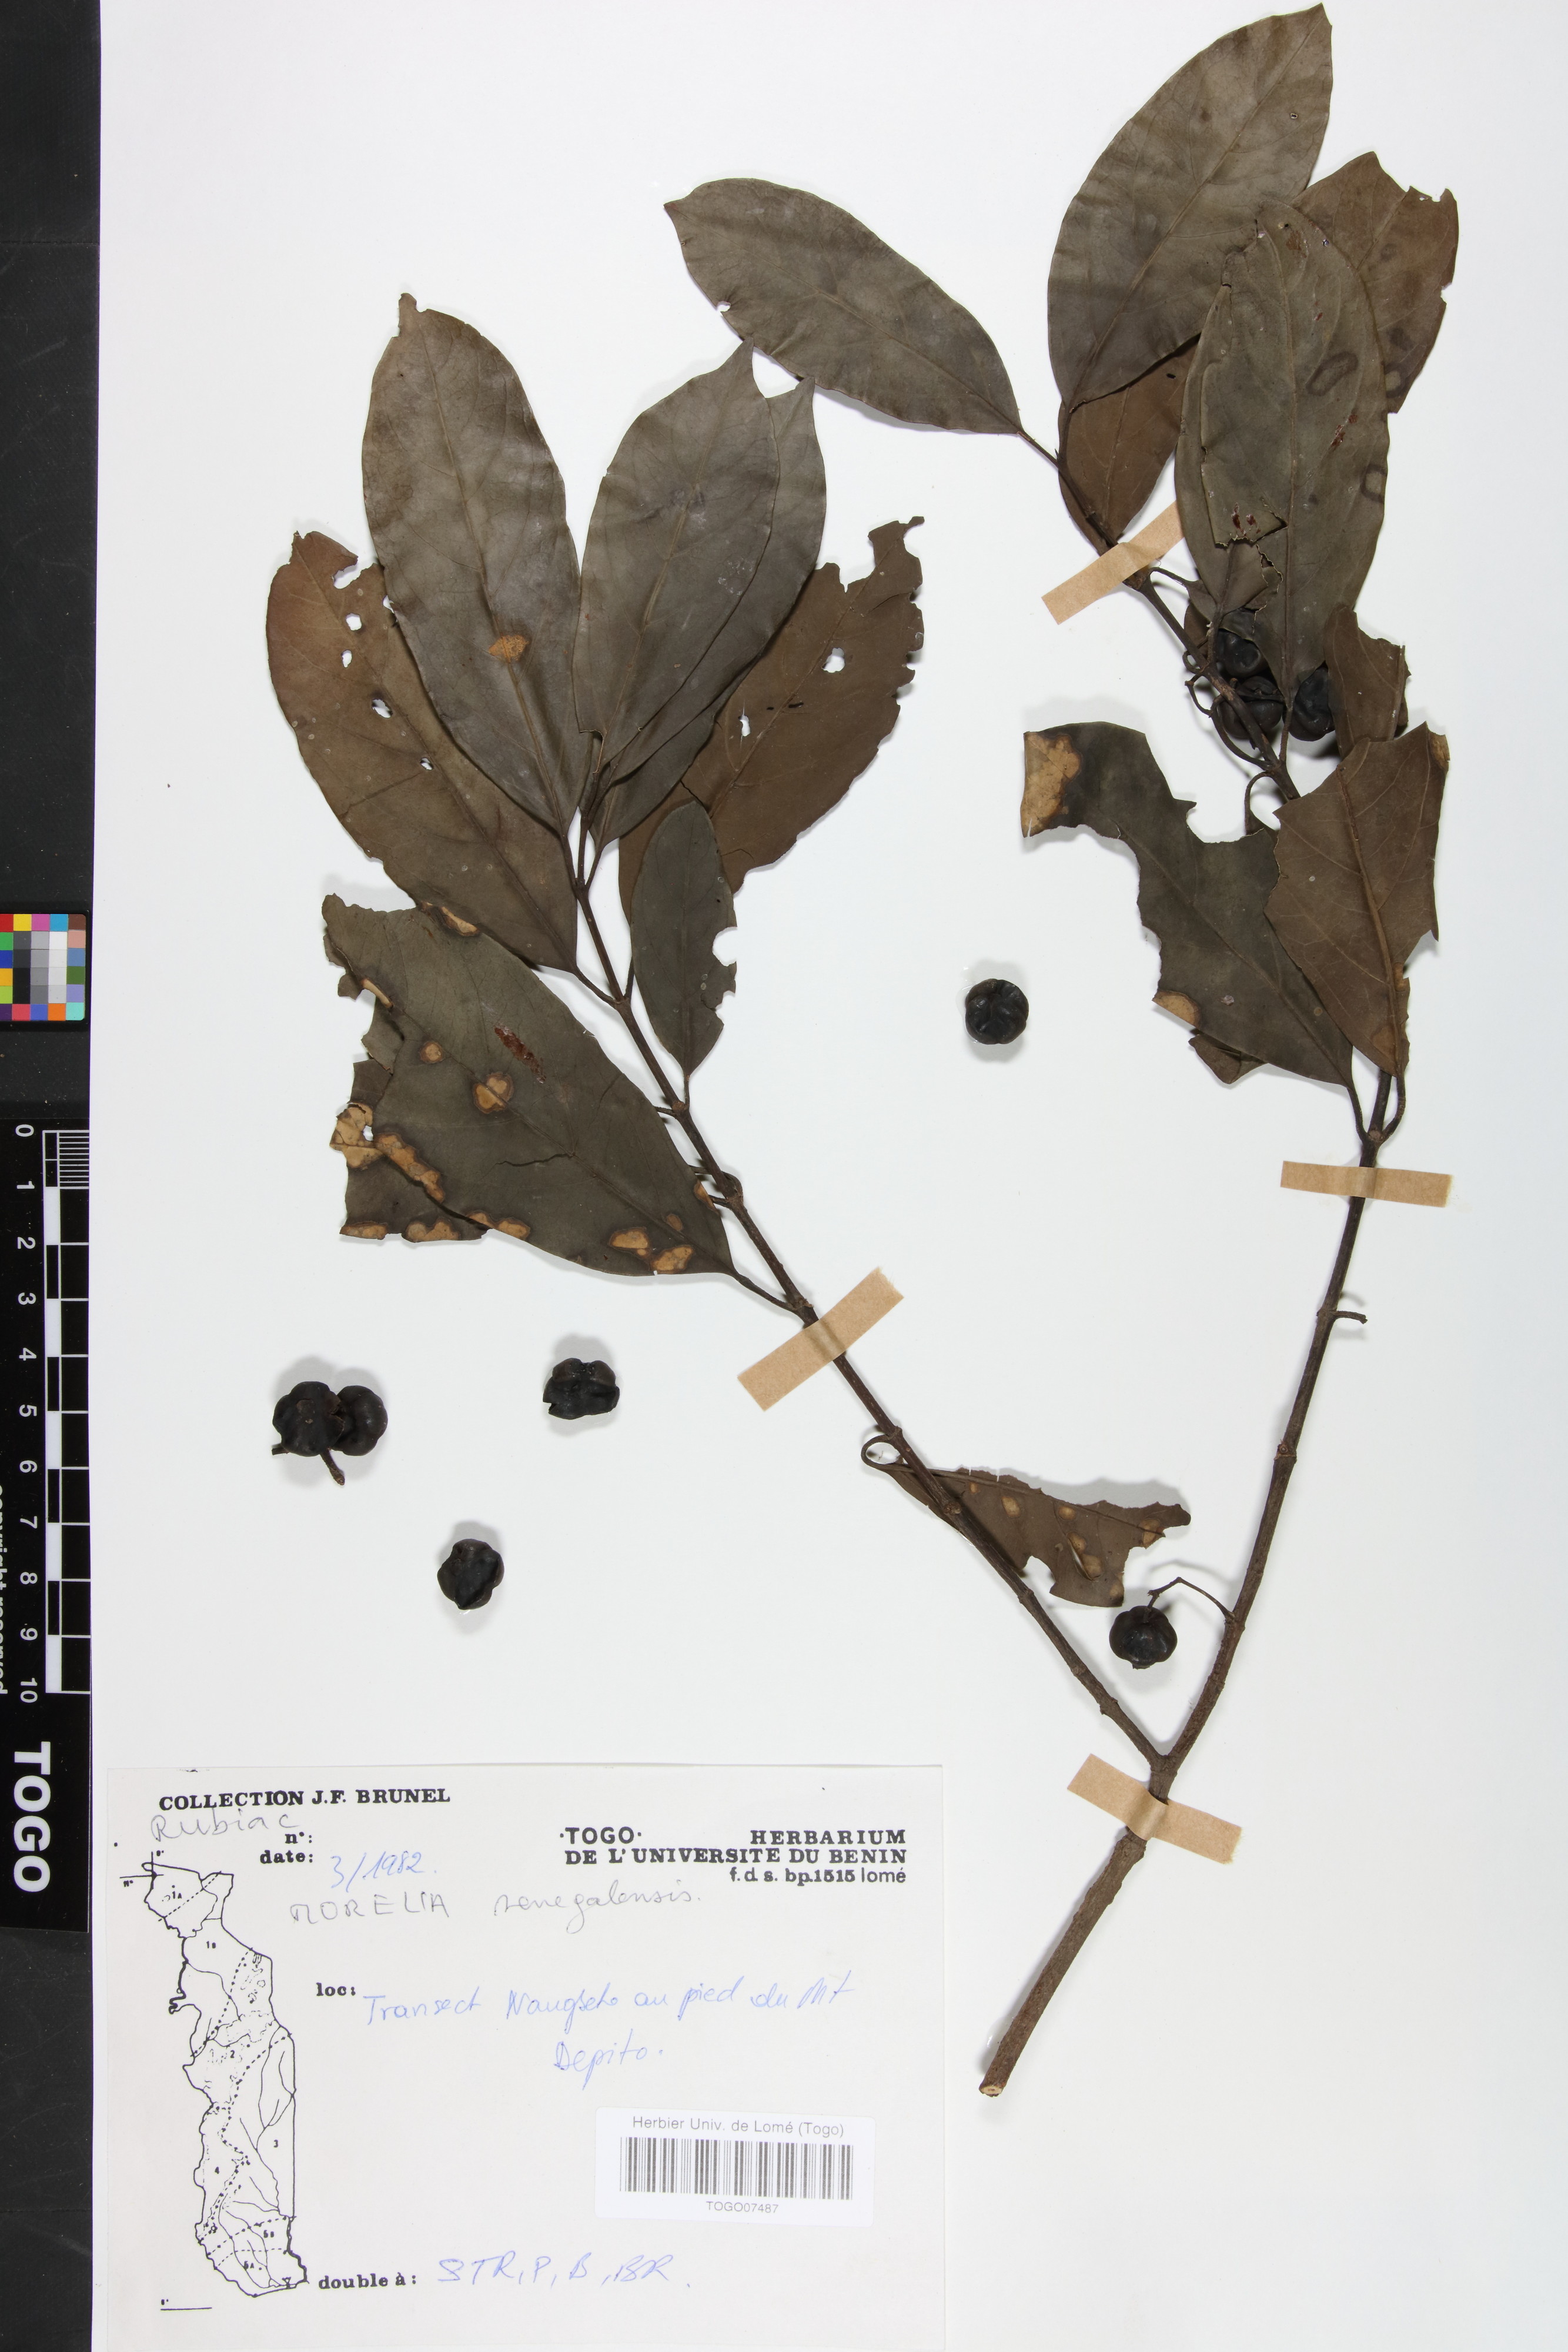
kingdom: Plantae
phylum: Tracheophyta
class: Magnoliopsida
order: Gentianales
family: Rubiaceae
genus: Morelia
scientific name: Morelia senegalensis
